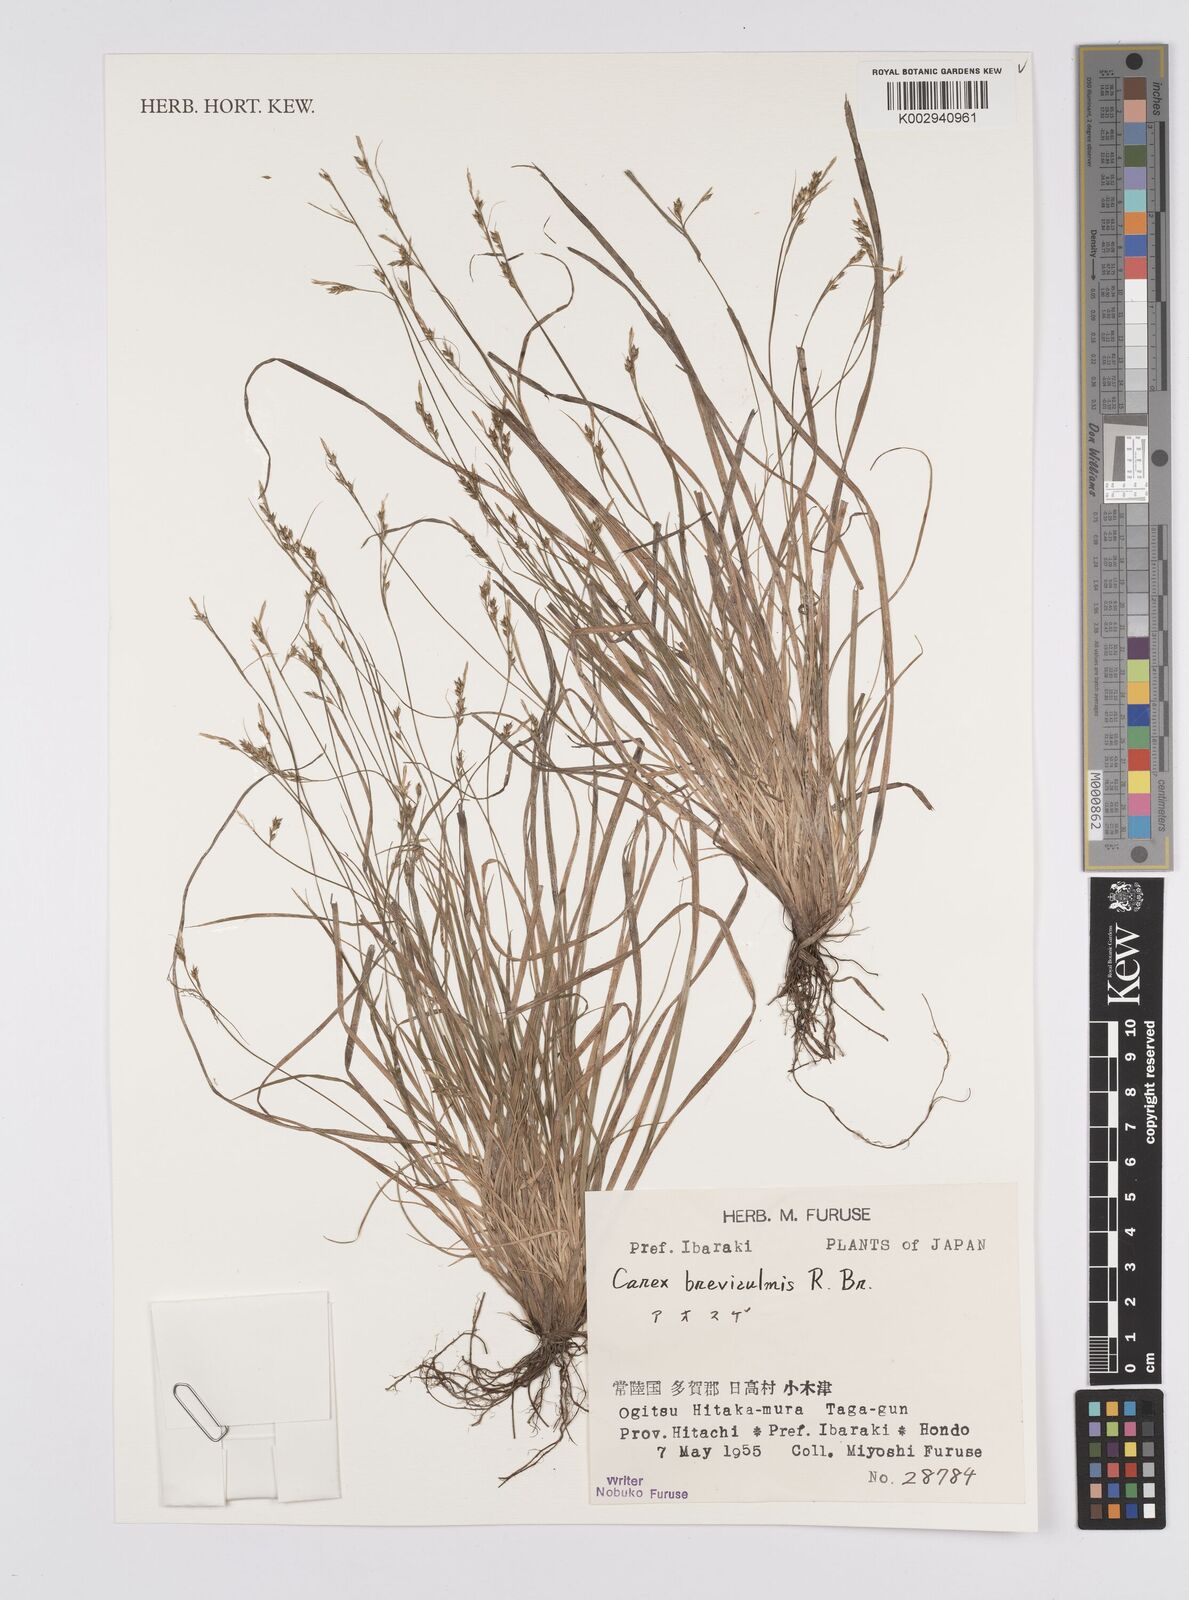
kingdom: Plantae
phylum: Tracheophyta
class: Liliopsida
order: Poales
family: Cyperaceae
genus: Carex
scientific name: Carex fibrillosa
